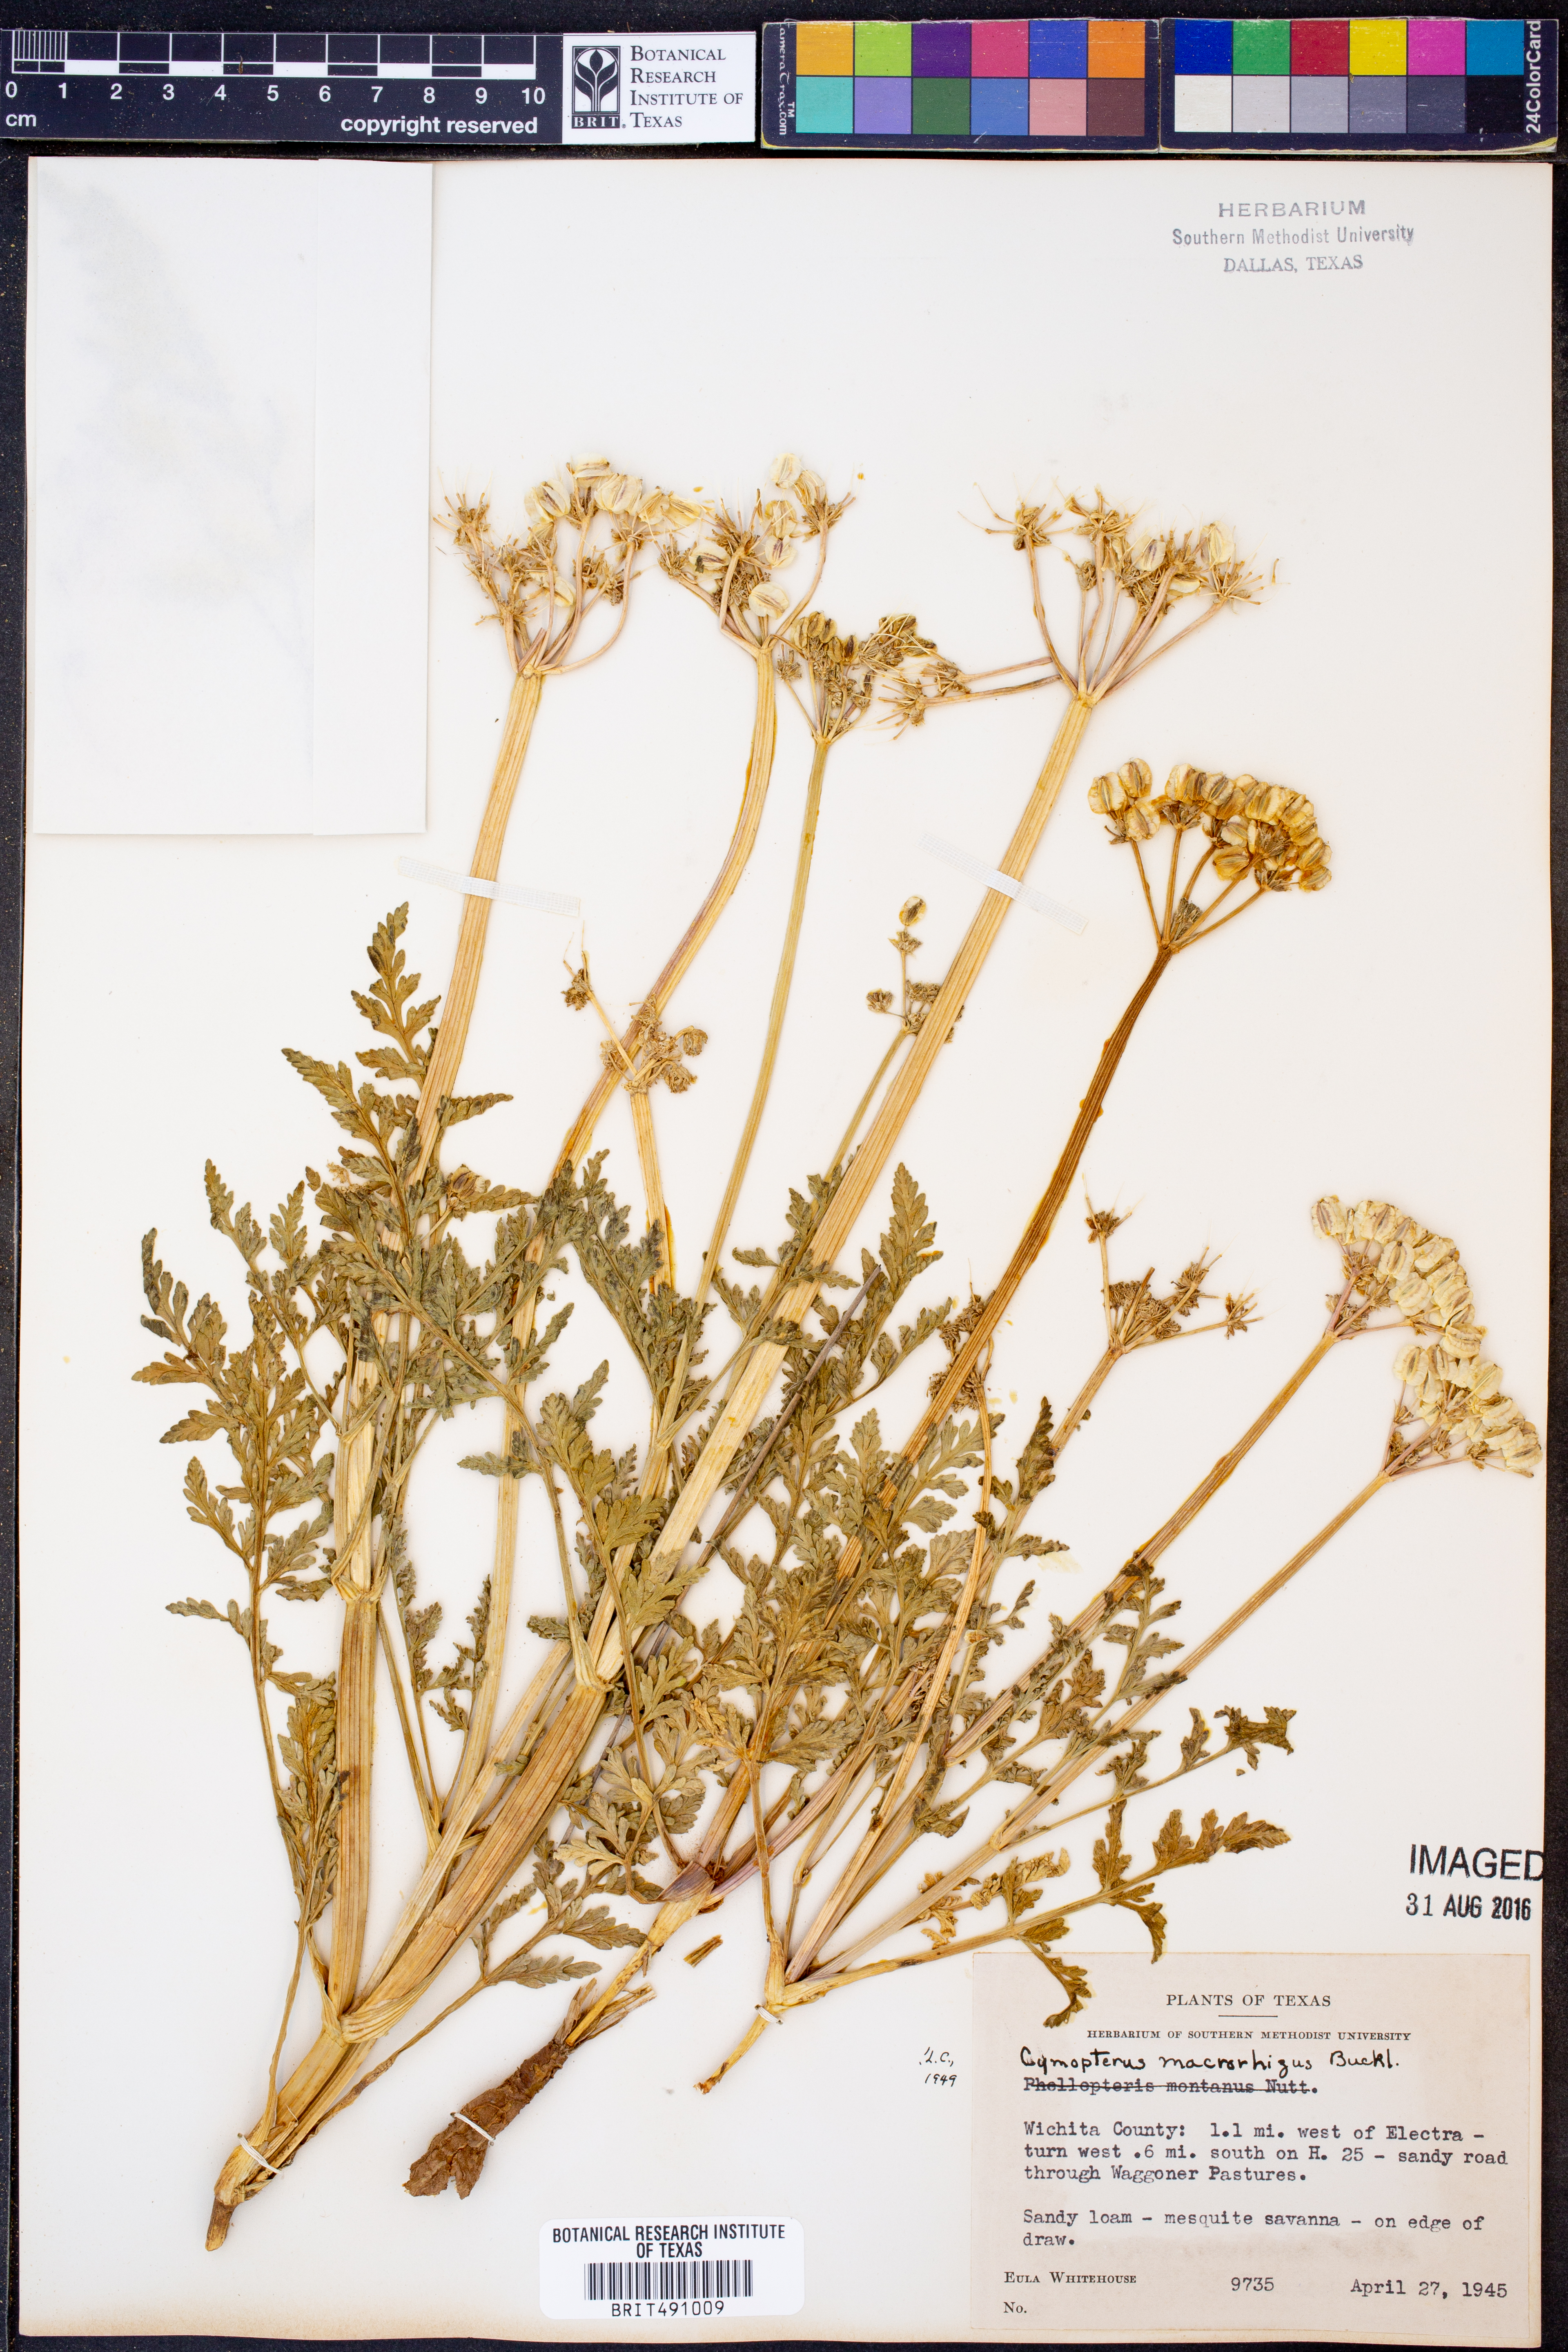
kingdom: Plantae
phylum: Tracheophyta
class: Magnoliopsida
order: Apiales
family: Apiaceae
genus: Vesper
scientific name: Vesper macrorhizus
